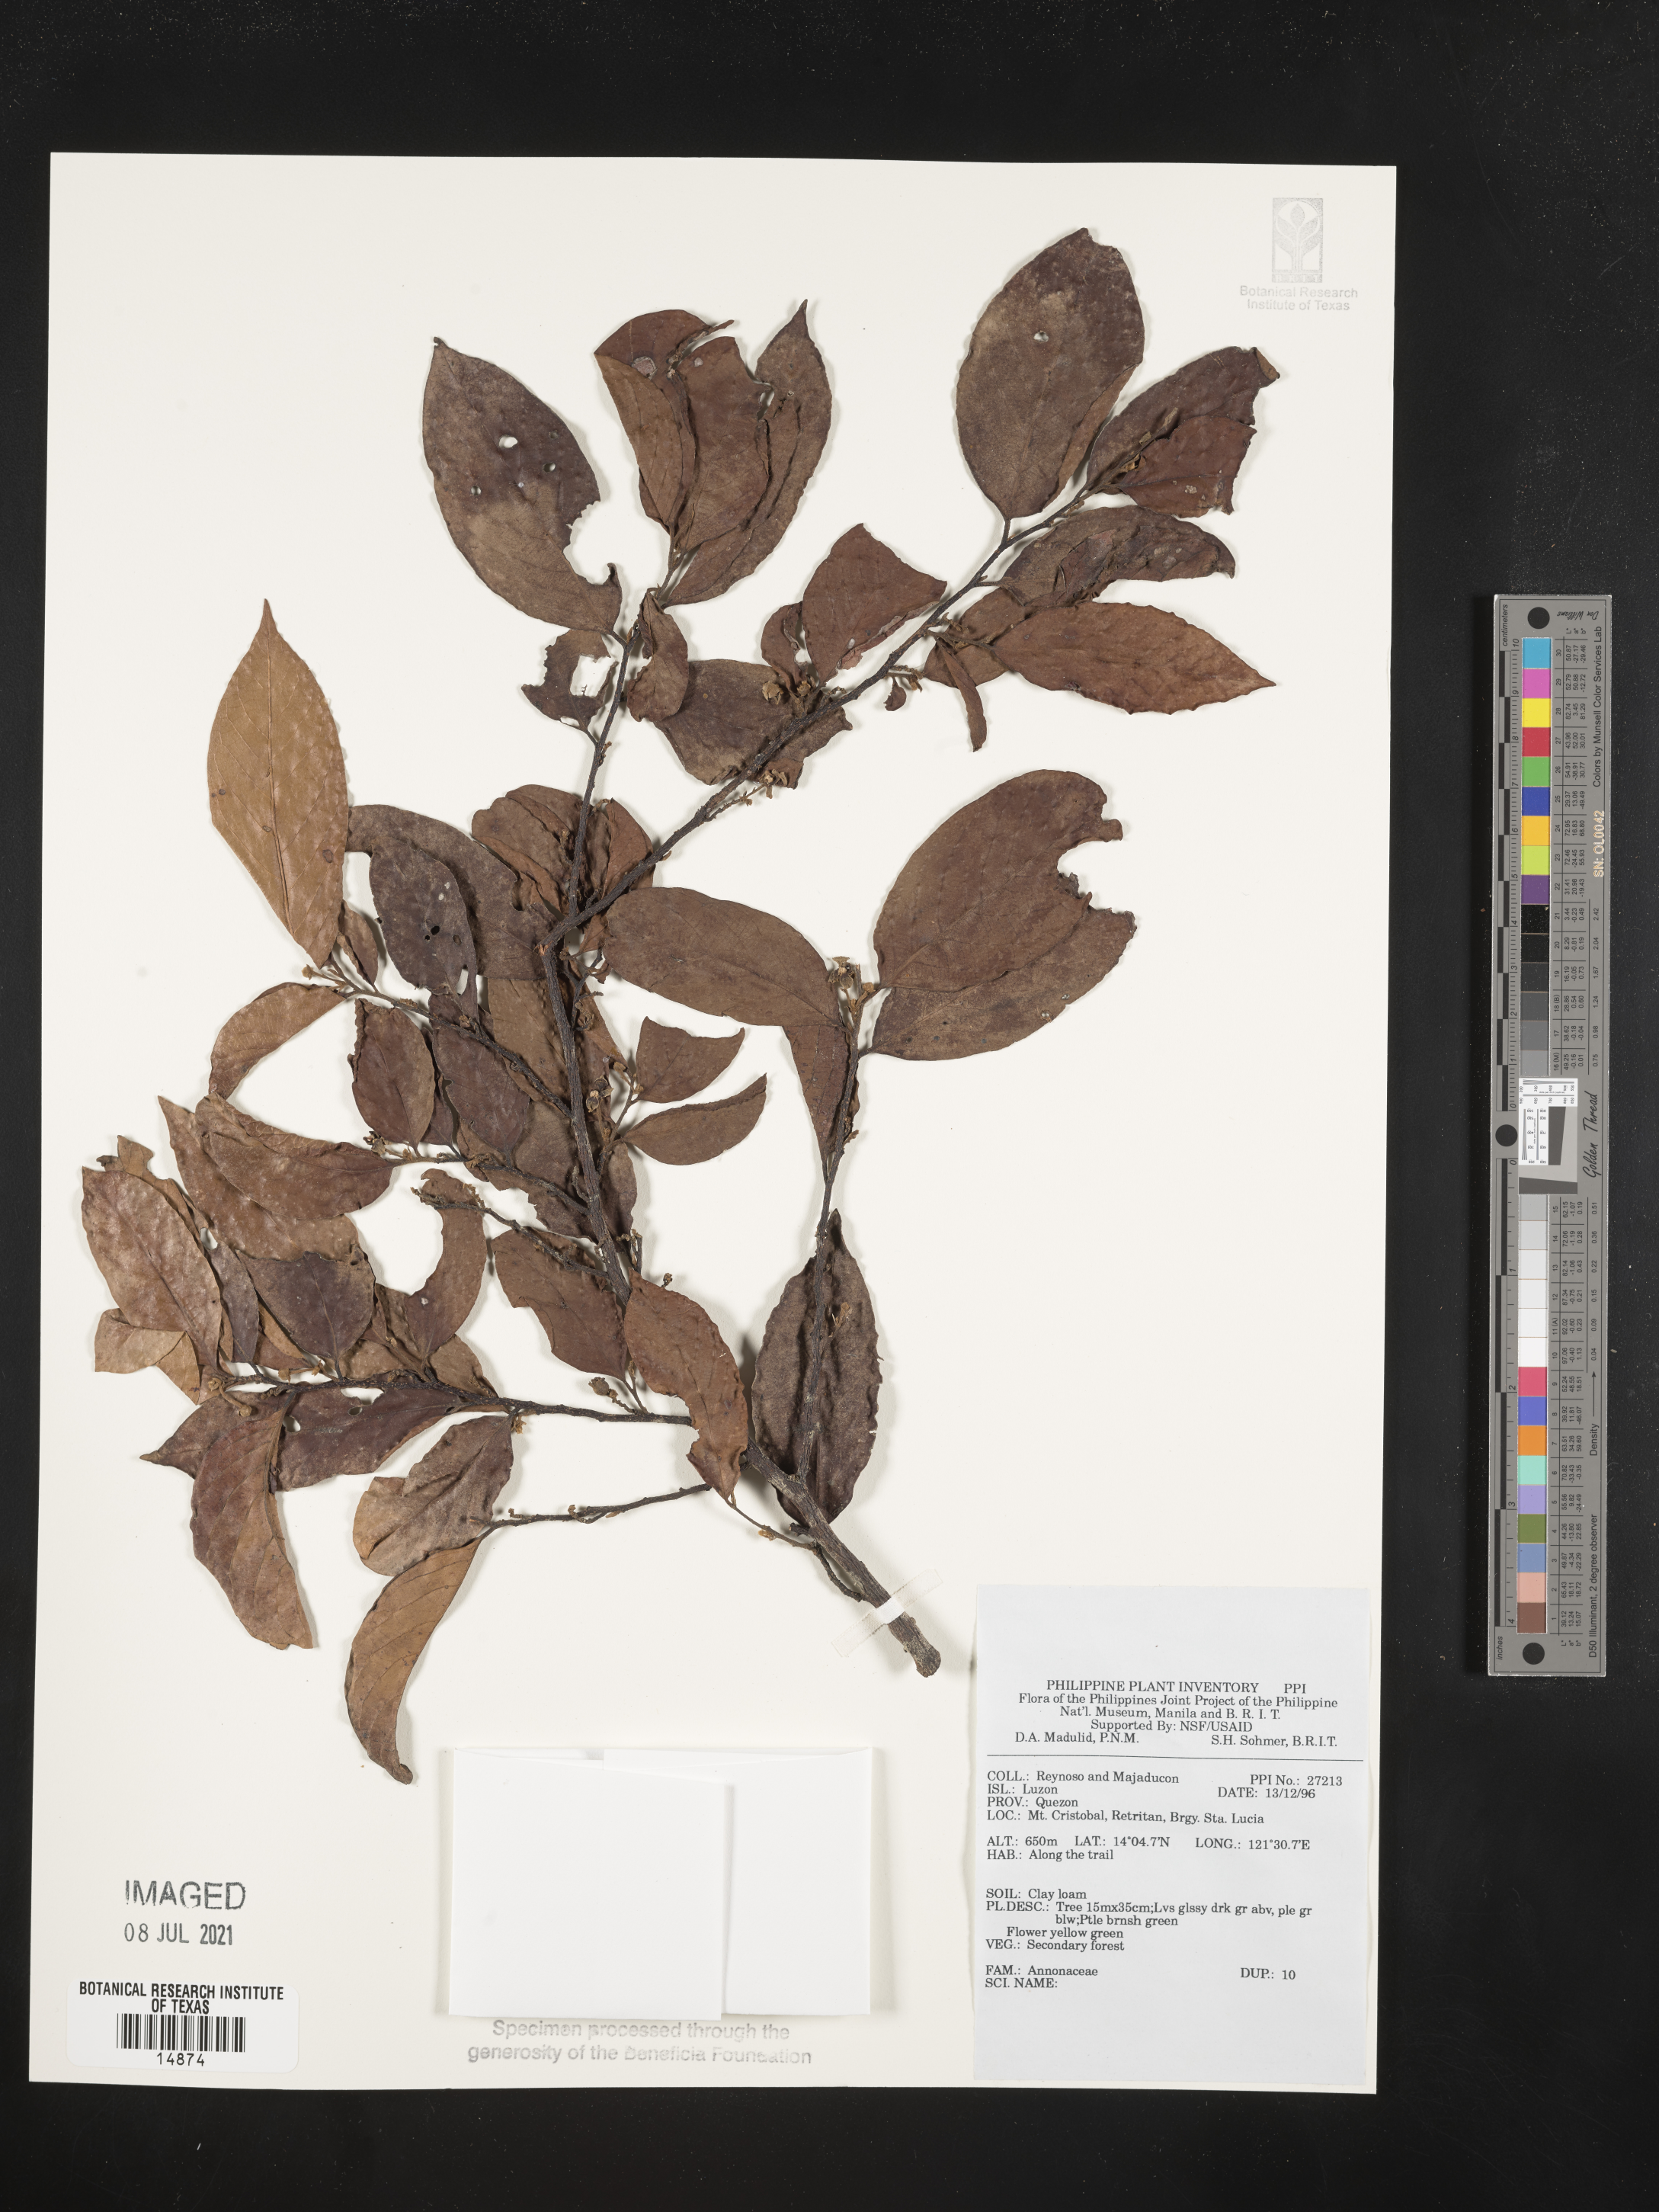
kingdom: Plantae
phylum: Tracheophyta
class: Magnoliopsida
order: Magnoliales
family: Annonaceae
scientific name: Annonaceae
